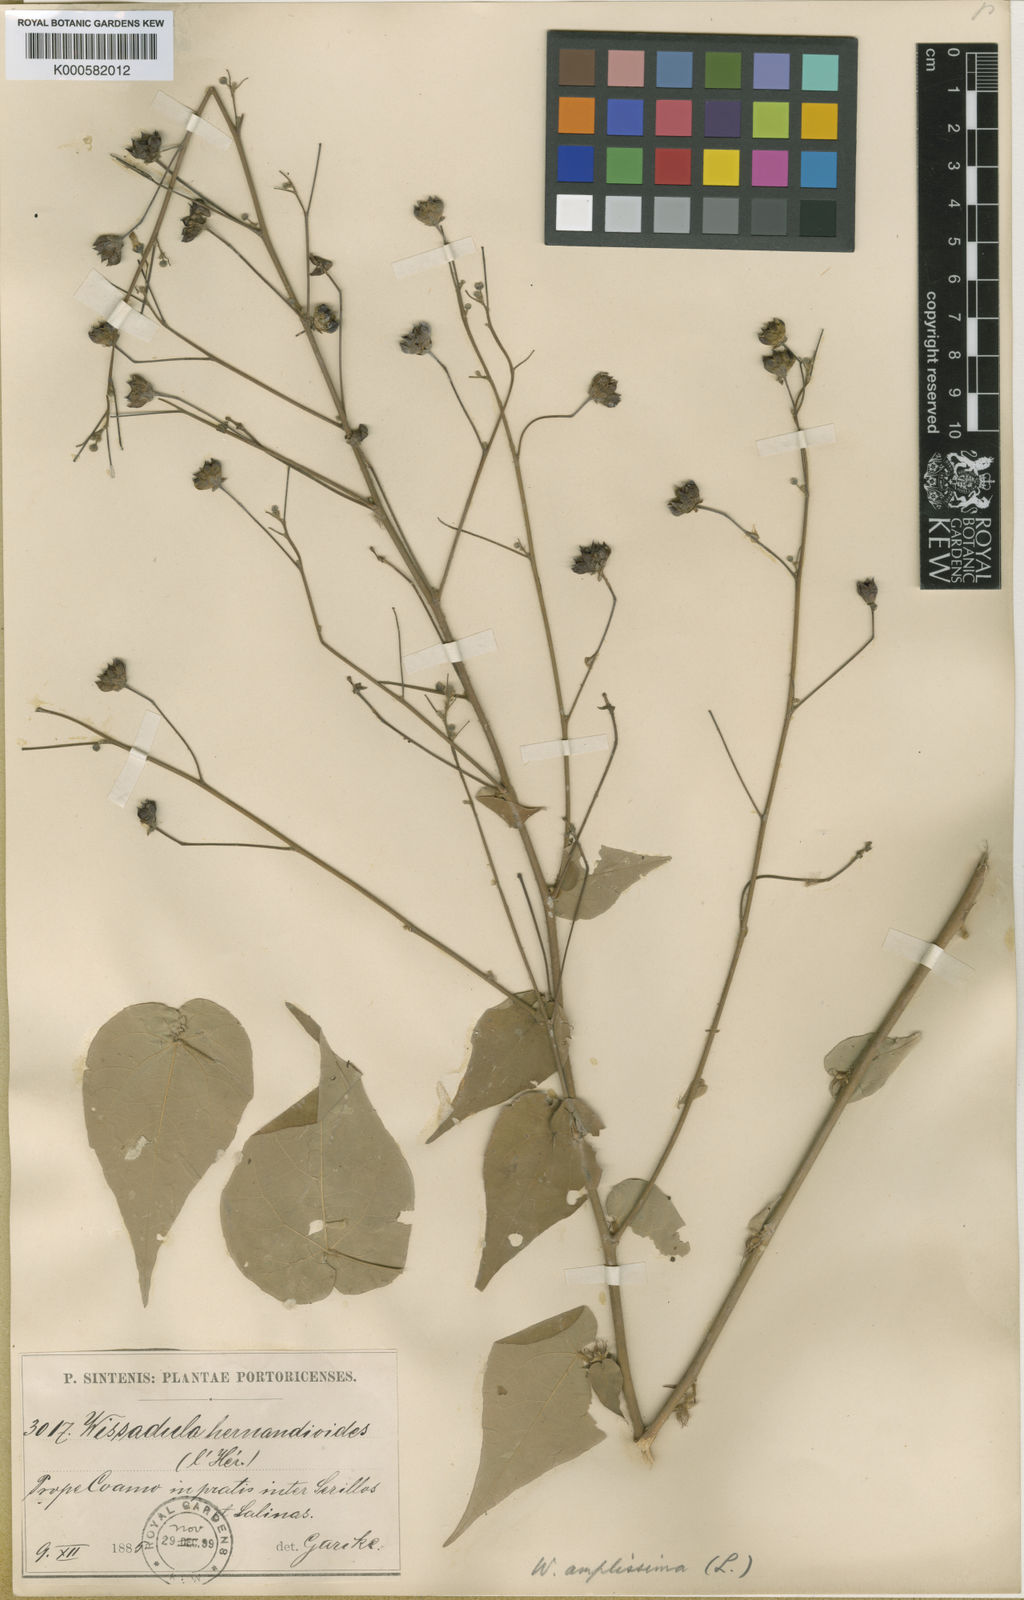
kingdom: Plantae
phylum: Tracheophyta
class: Magnoliopsida
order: Malvales
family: Malvaceae
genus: Wissadula
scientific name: Wissadula amplissima
